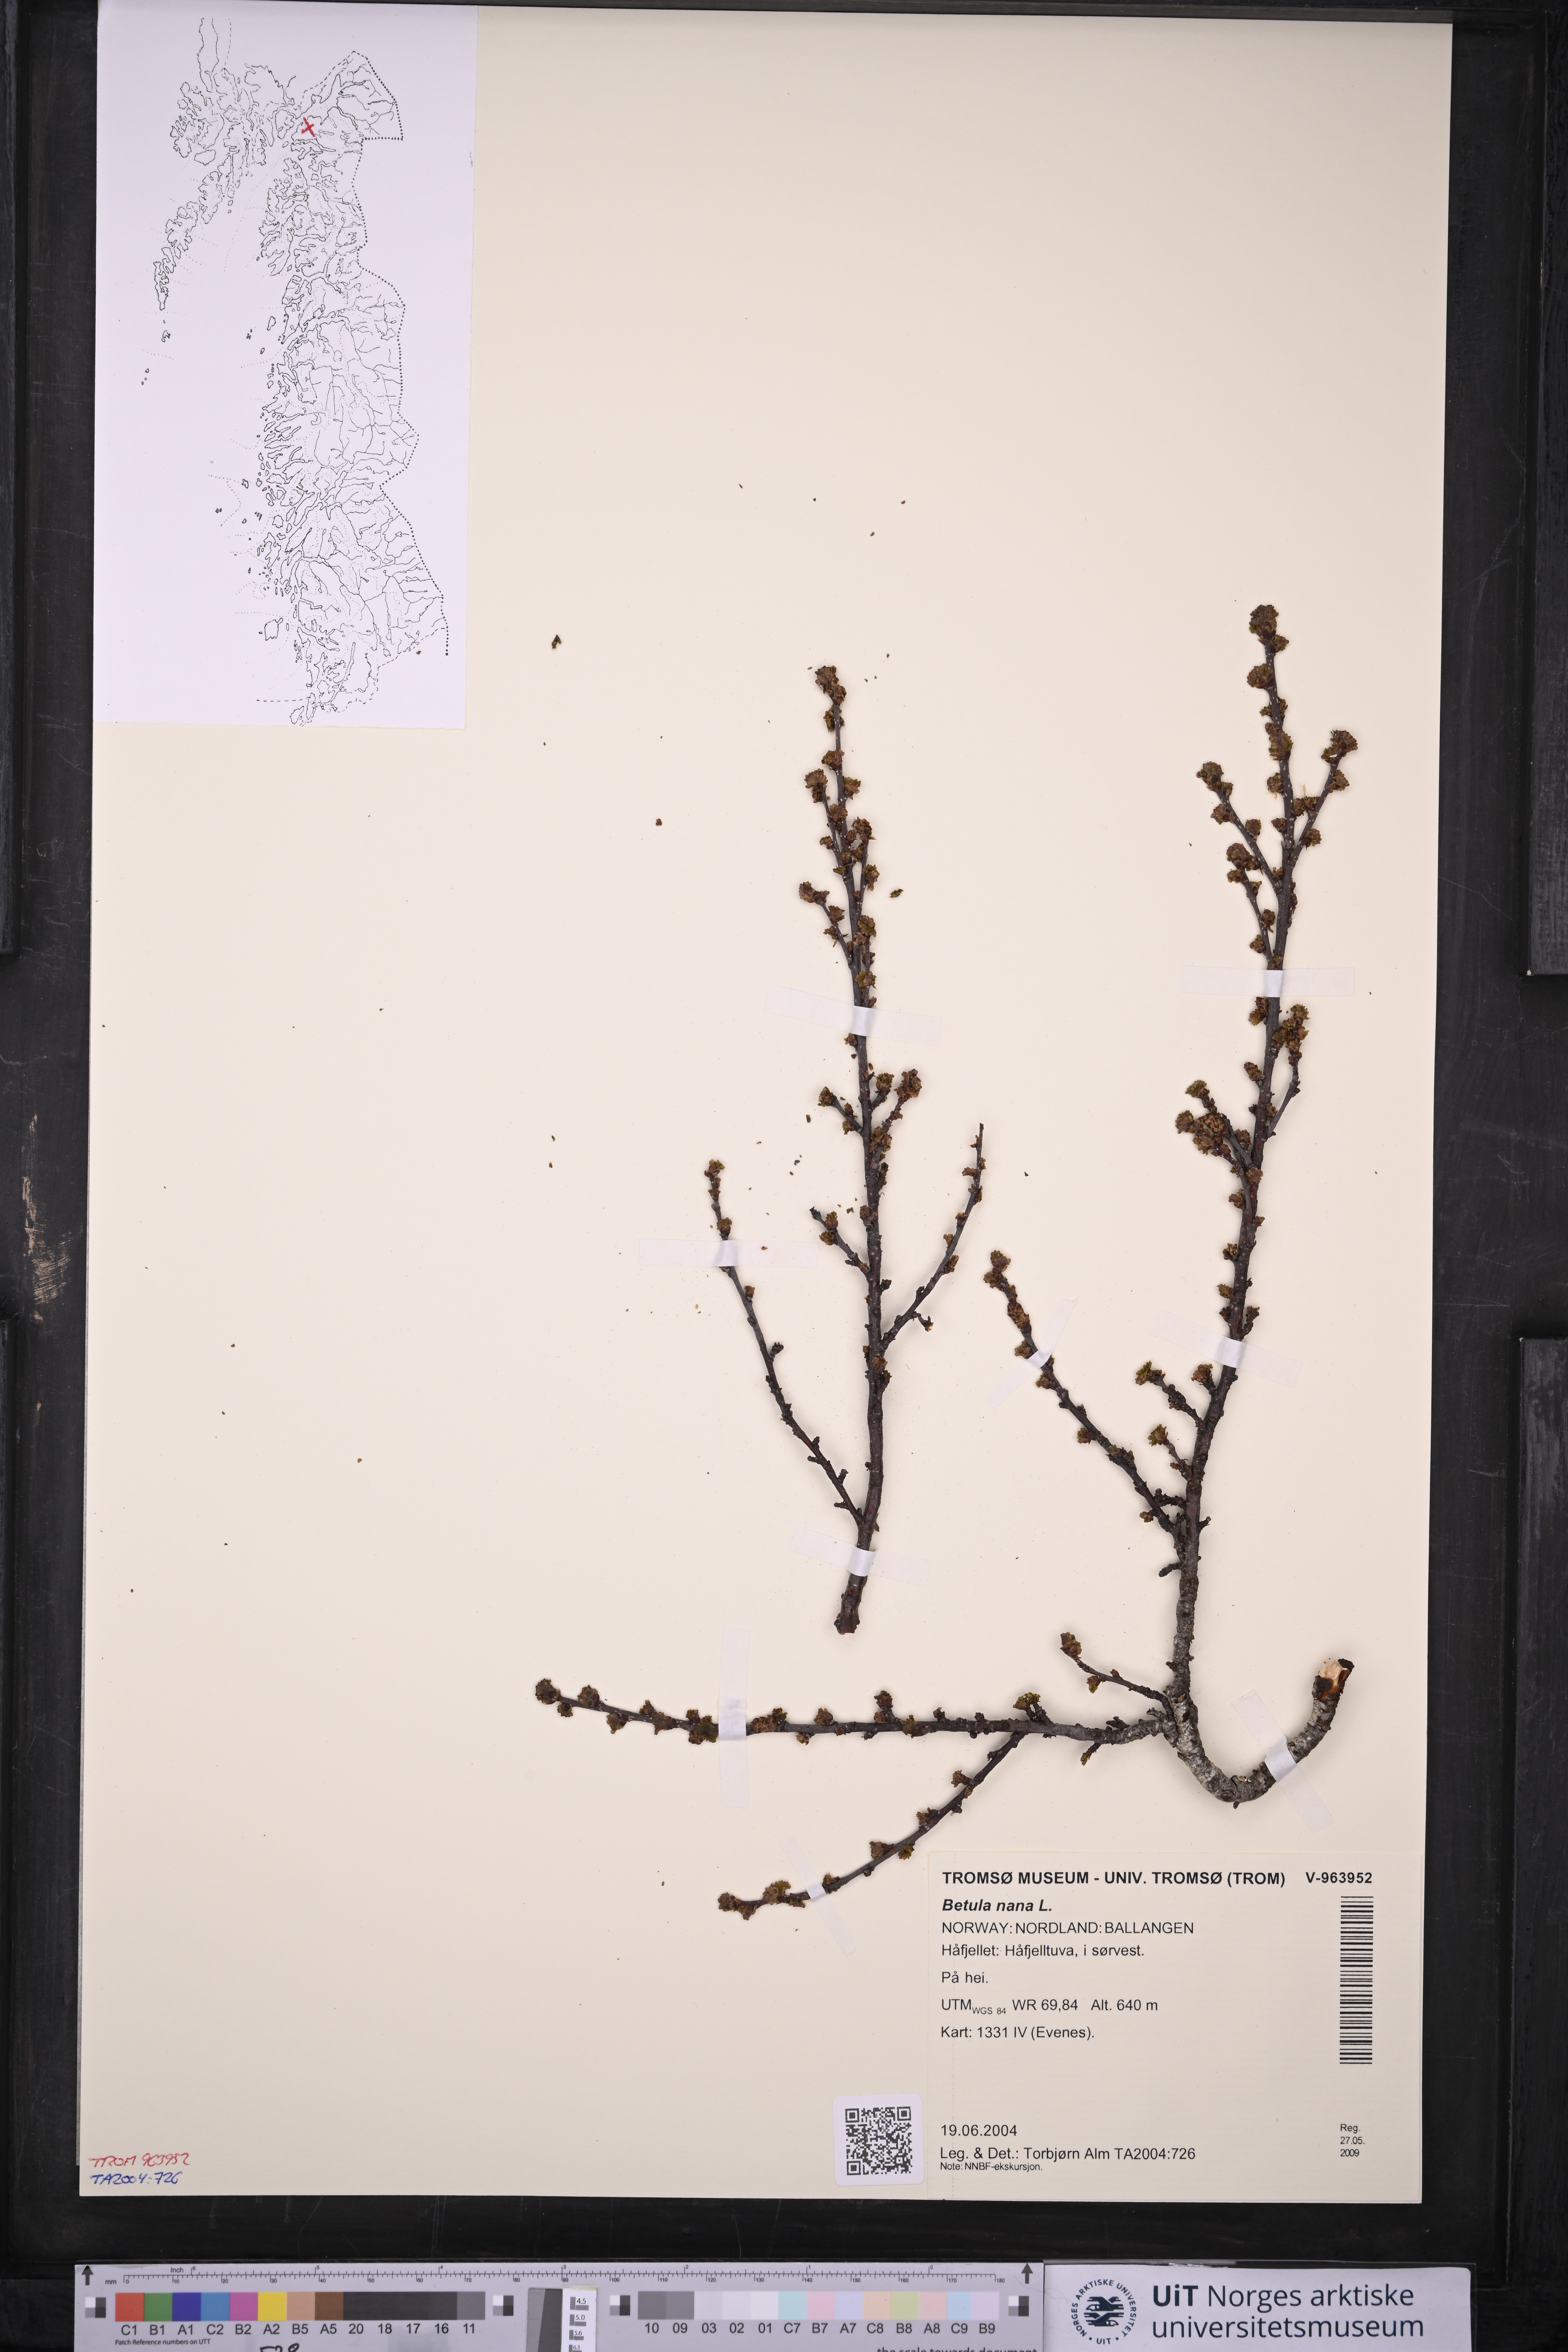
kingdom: Plantae
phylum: Tracheophyta
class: Magnoliopsida
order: Fagales
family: Betulaceae
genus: Betula
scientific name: Betula nana
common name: Arctic dwarf birch
